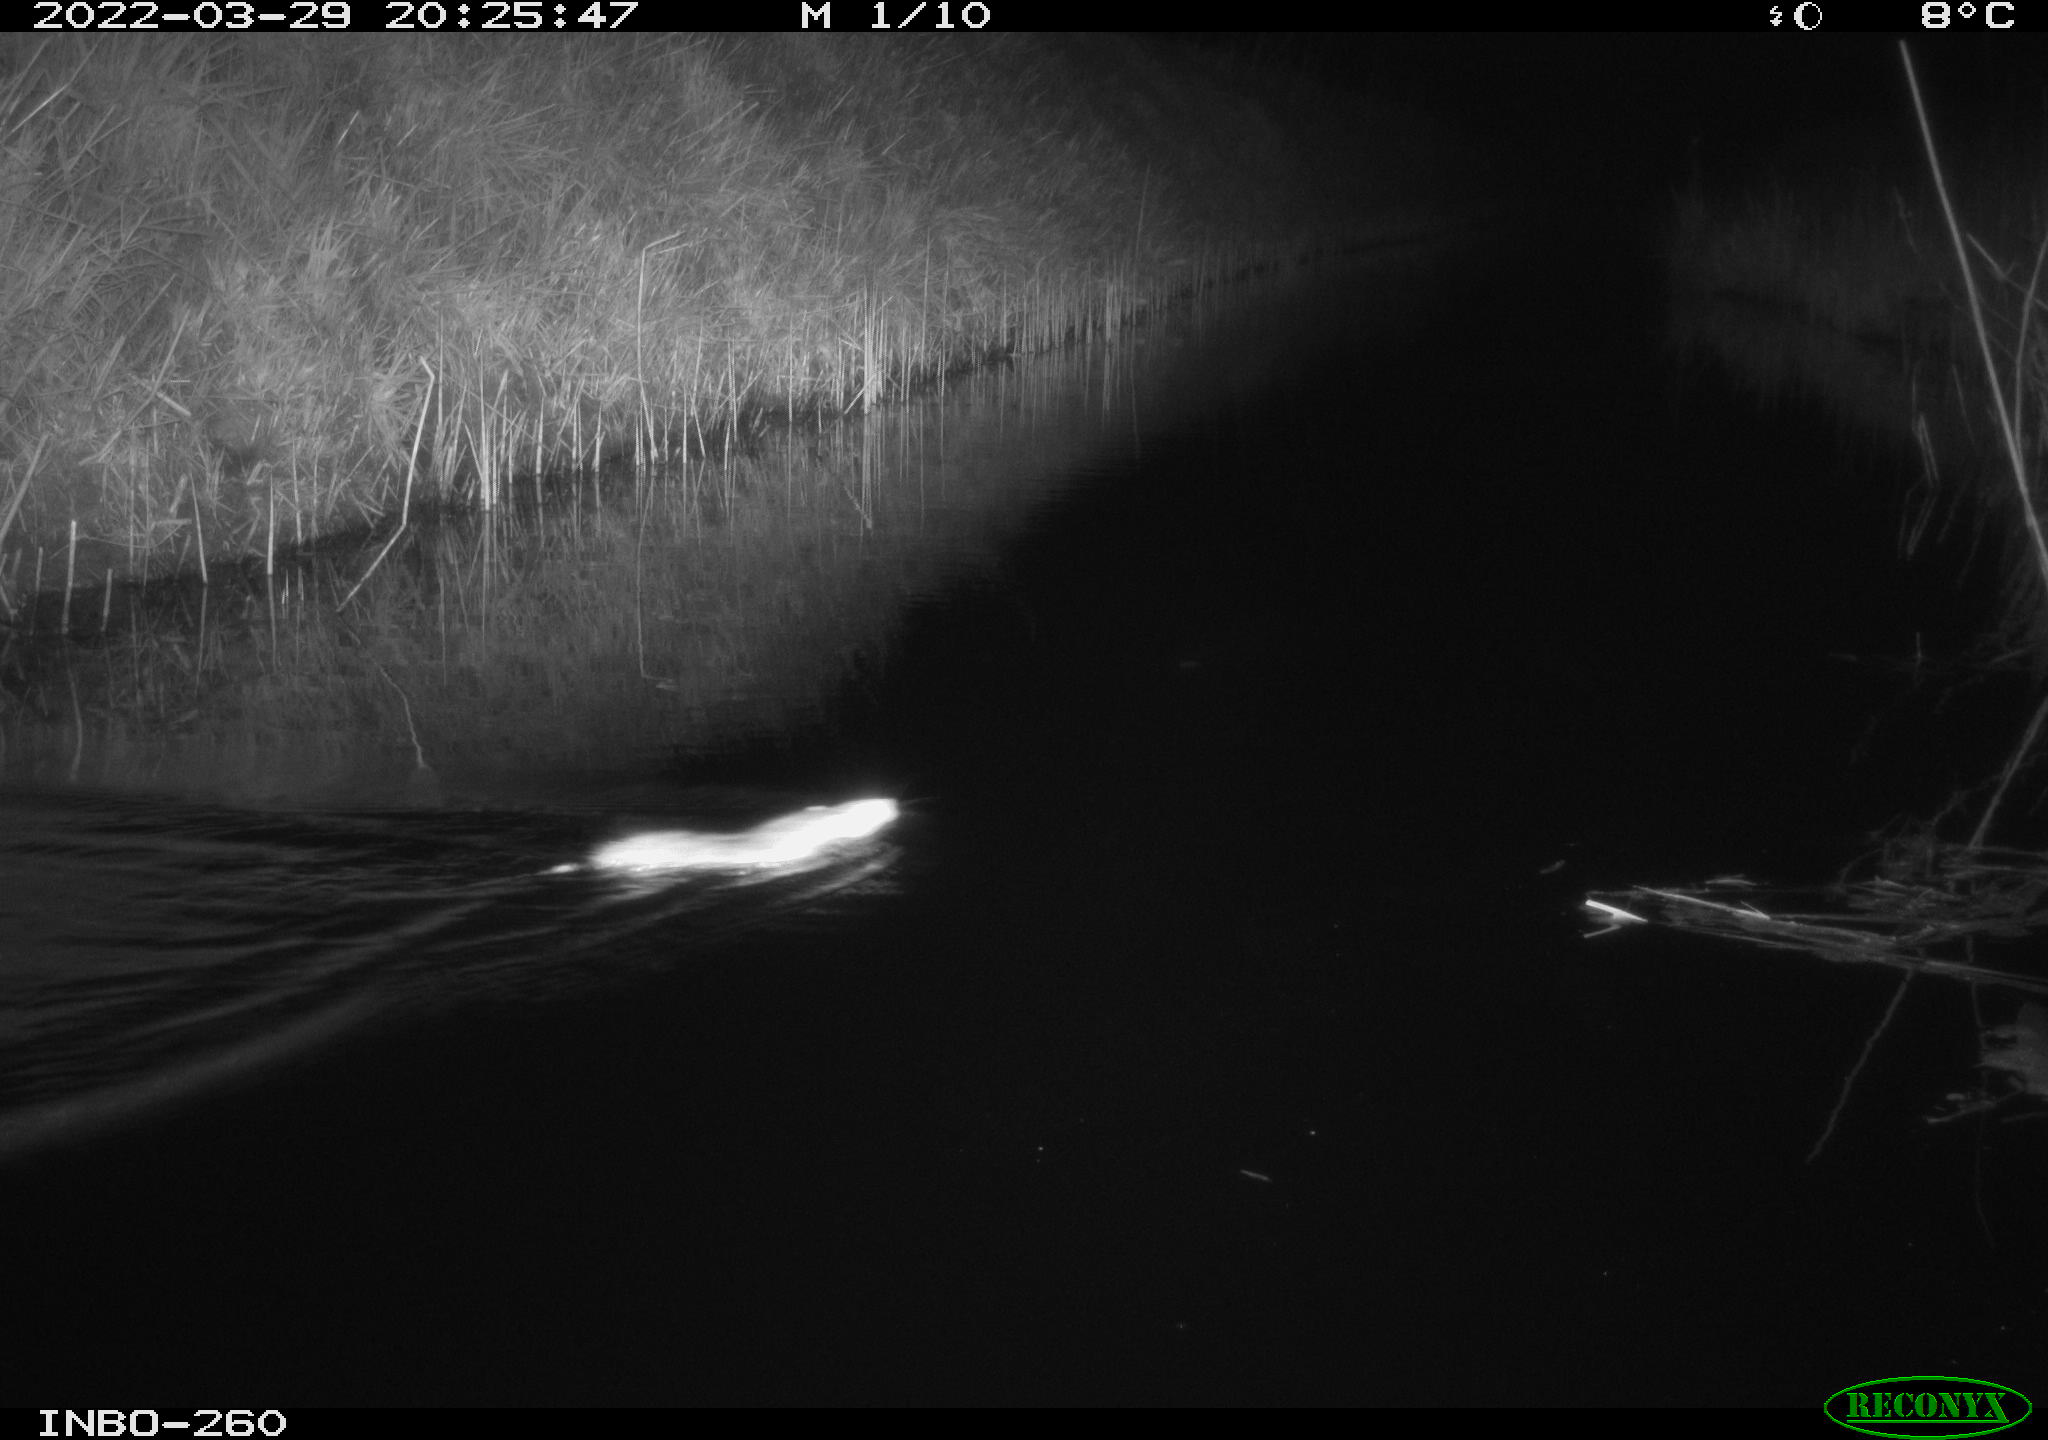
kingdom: Animalia
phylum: Chordata
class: Mammalia
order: Rodentia
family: Muridae
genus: Rattus
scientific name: Rattus norvegicus
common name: Brown rat
